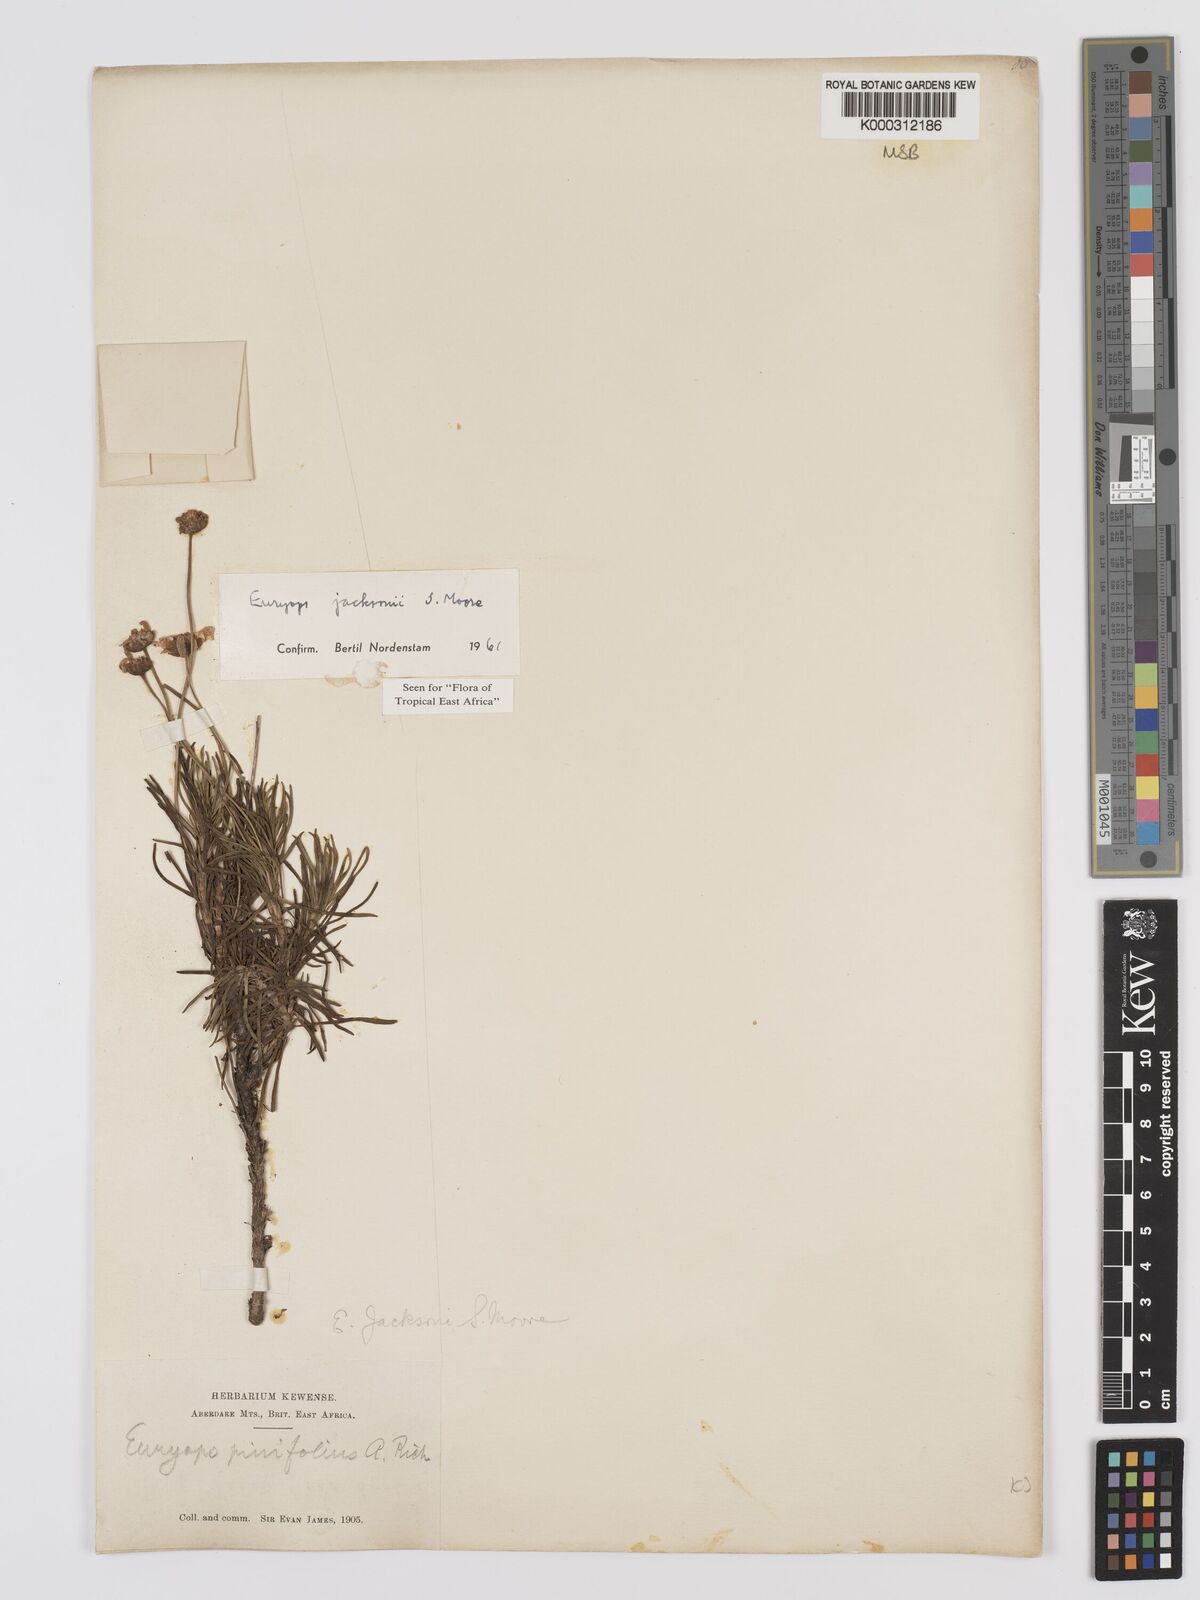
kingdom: Plantae
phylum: Tracheophyta
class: Magnoliopsida
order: Asterales
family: Asteraceae
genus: Euryops
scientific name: Euryops jacksonii
